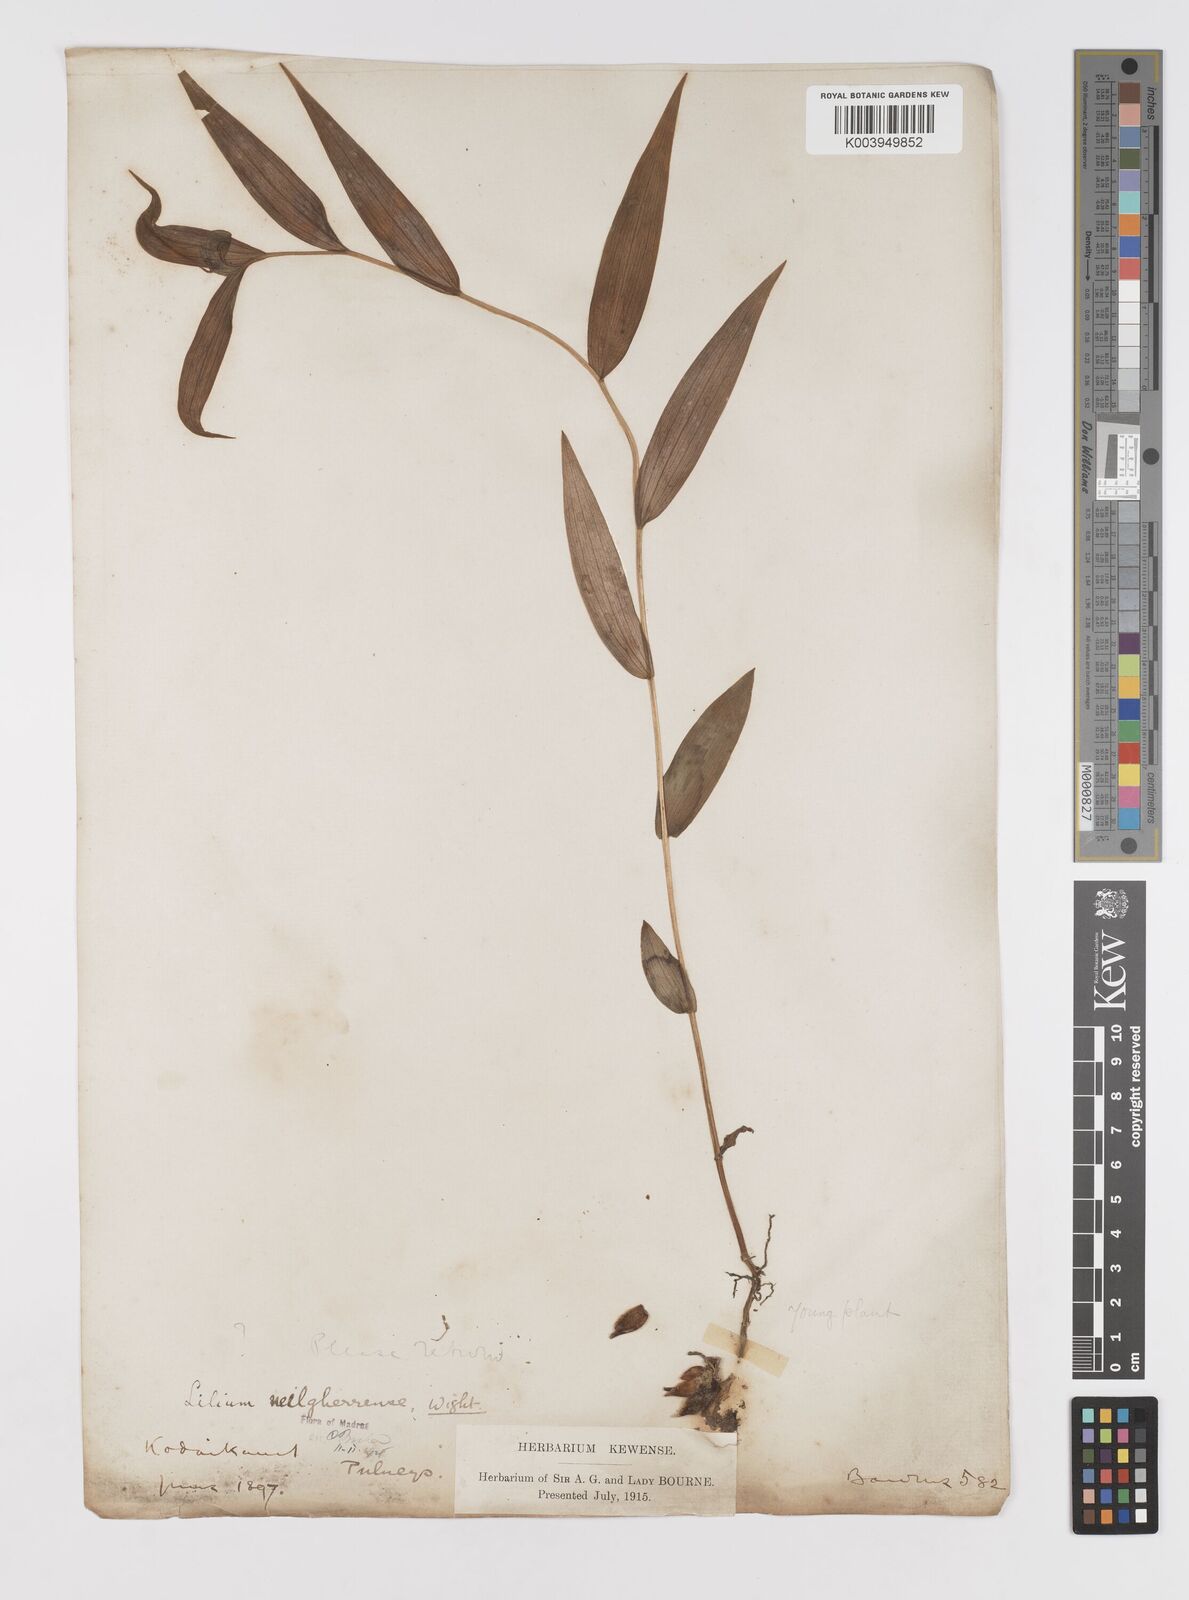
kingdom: Plantae
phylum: Tracheophyta
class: Liliopsida
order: Liliales
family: Liliaceae
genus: Lilium
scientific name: Lilium wallichianum
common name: Wallich's lily
